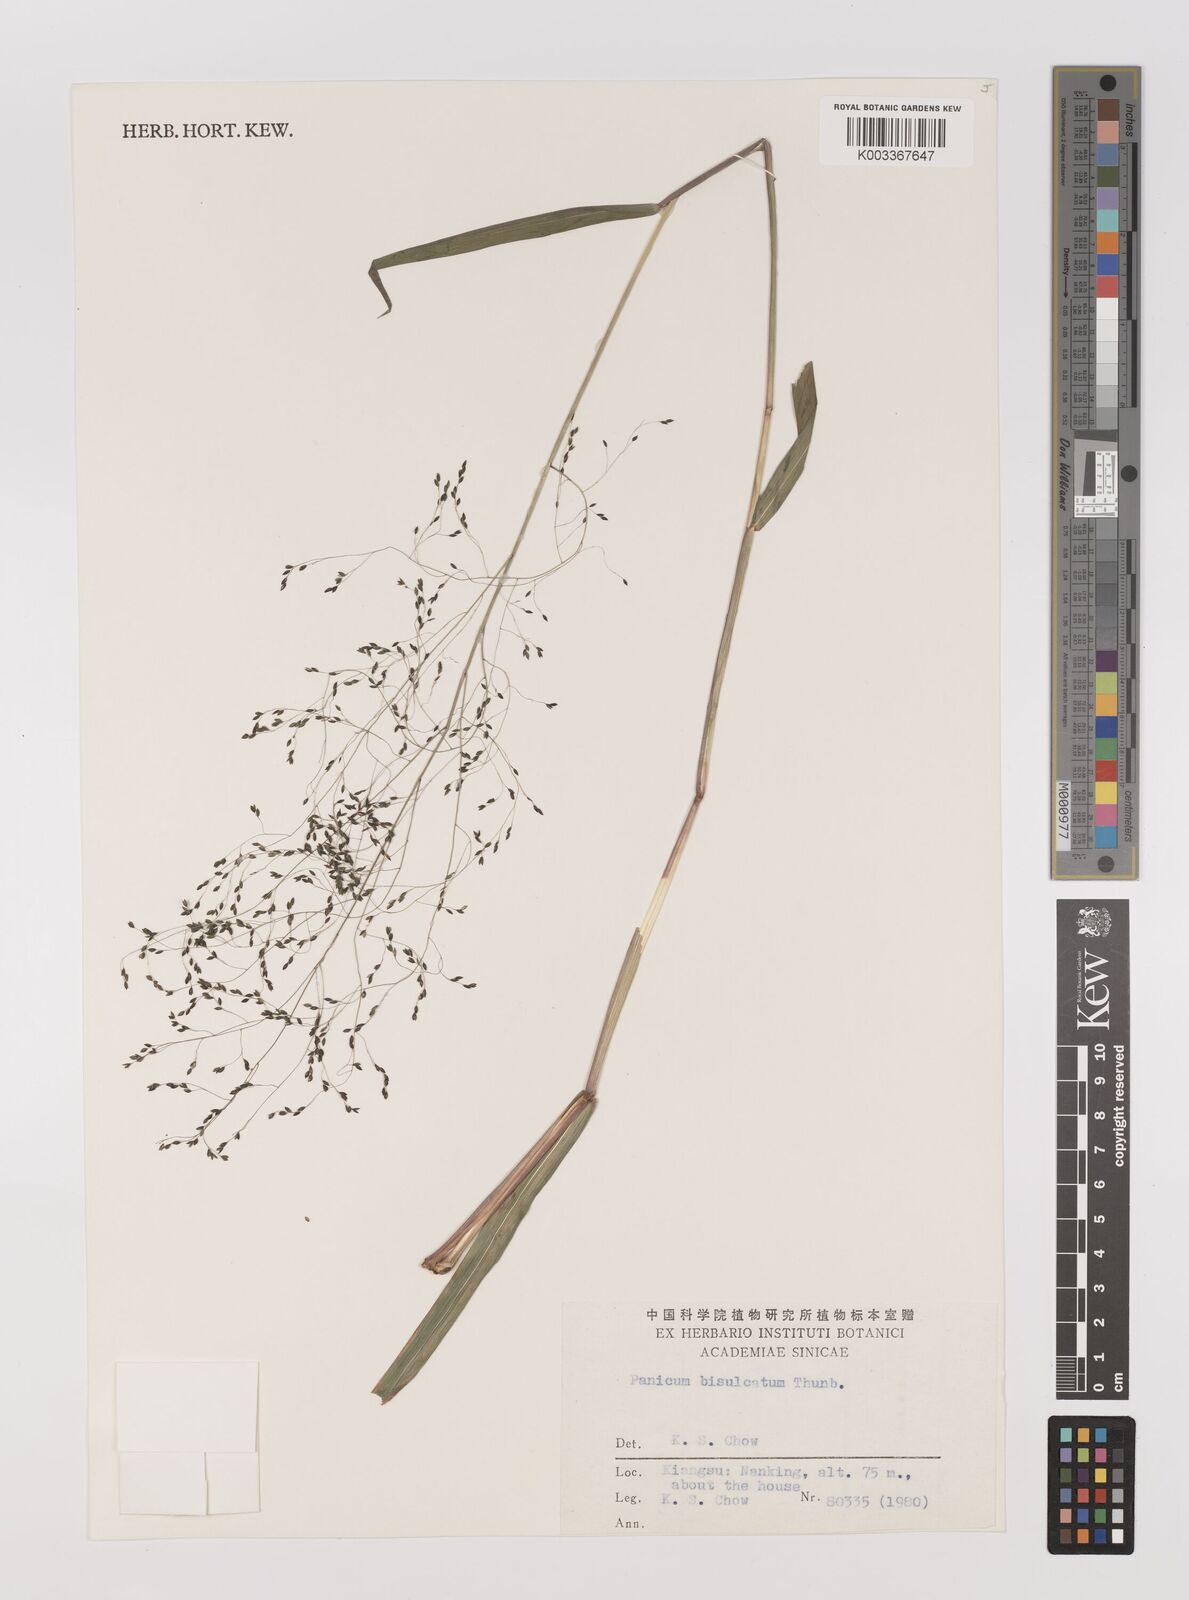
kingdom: Plantae
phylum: Tracheophyta
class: Liliopsida
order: Poales
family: Poaceae
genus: Panicum
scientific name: Panicum bisulcatum
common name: Japanese panicgrass
